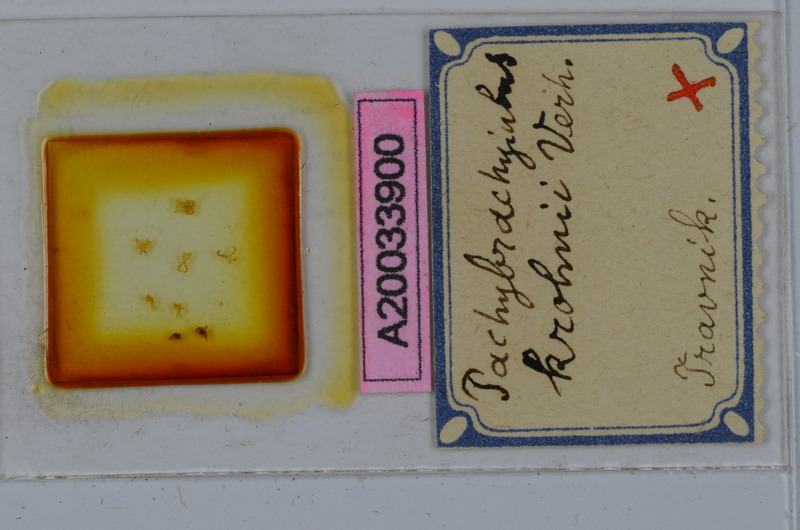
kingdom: Animalia
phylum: Arthropoda
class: Diplopoda
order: Julida
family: Julidae
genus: Pachybrachyiulus
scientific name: Pachybrachyiulus
